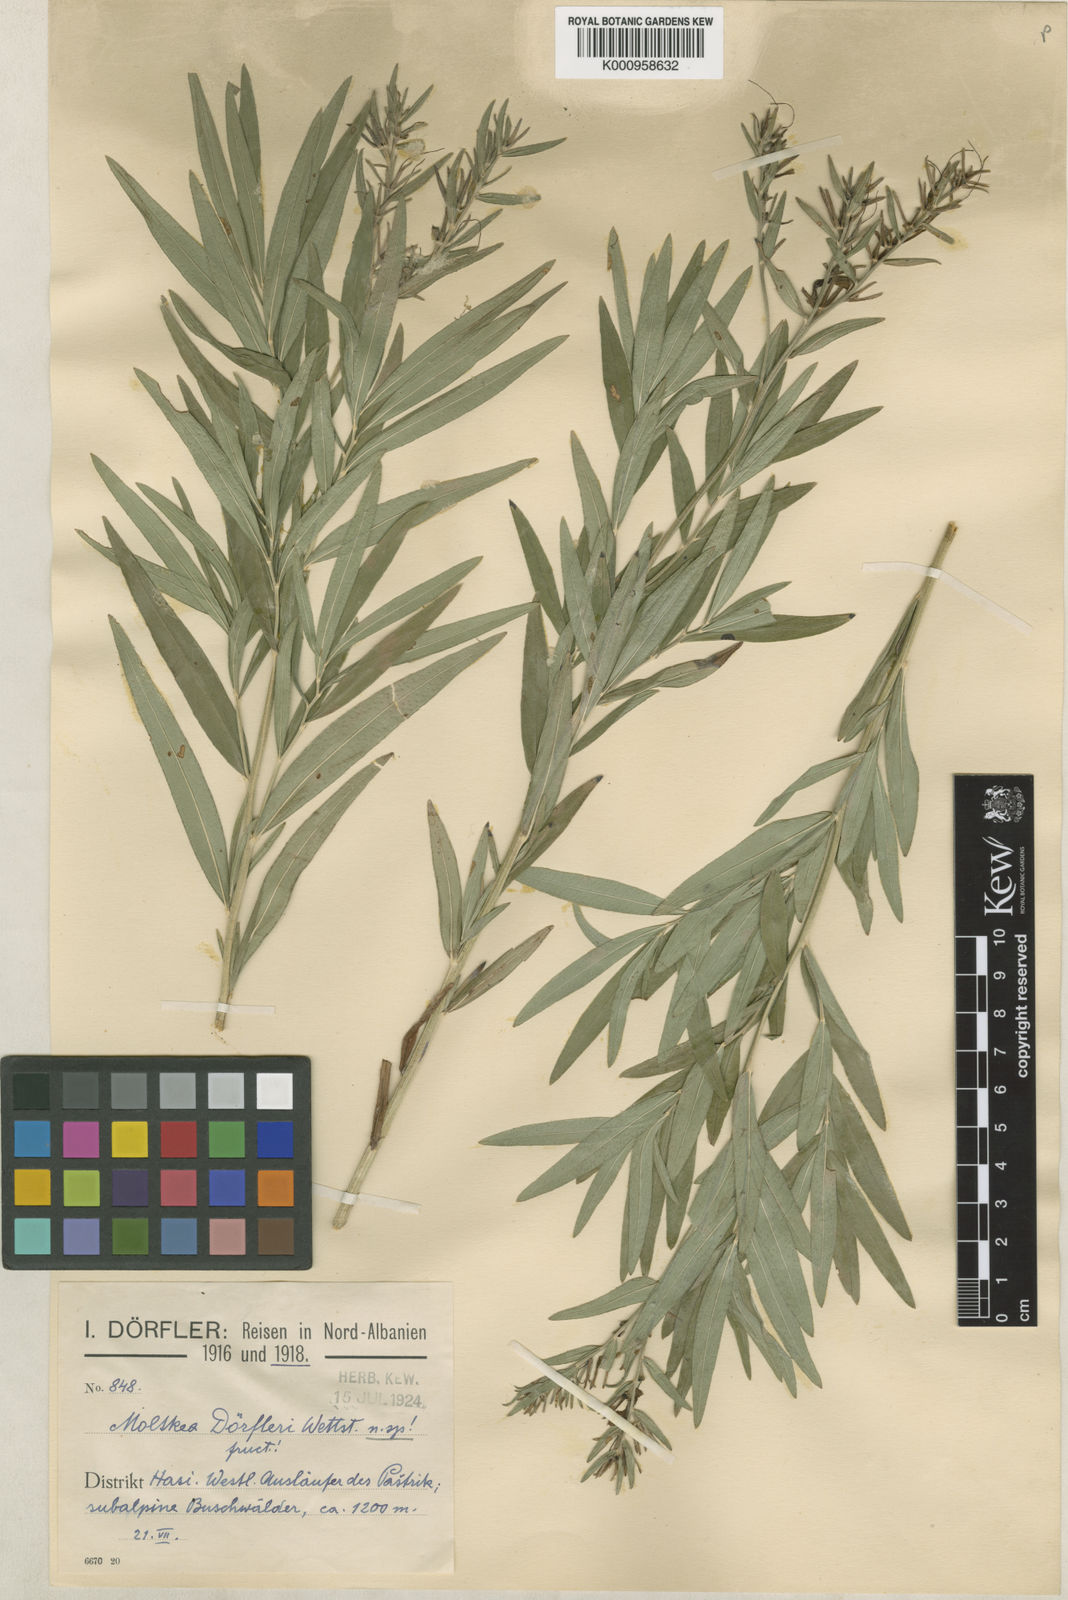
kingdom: Plantae
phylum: Tracheophyta
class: Magnoliopsida
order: Boraginales
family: Boraginaceae
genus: Paramoltkia
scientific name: Paramoltkia doerfleri
